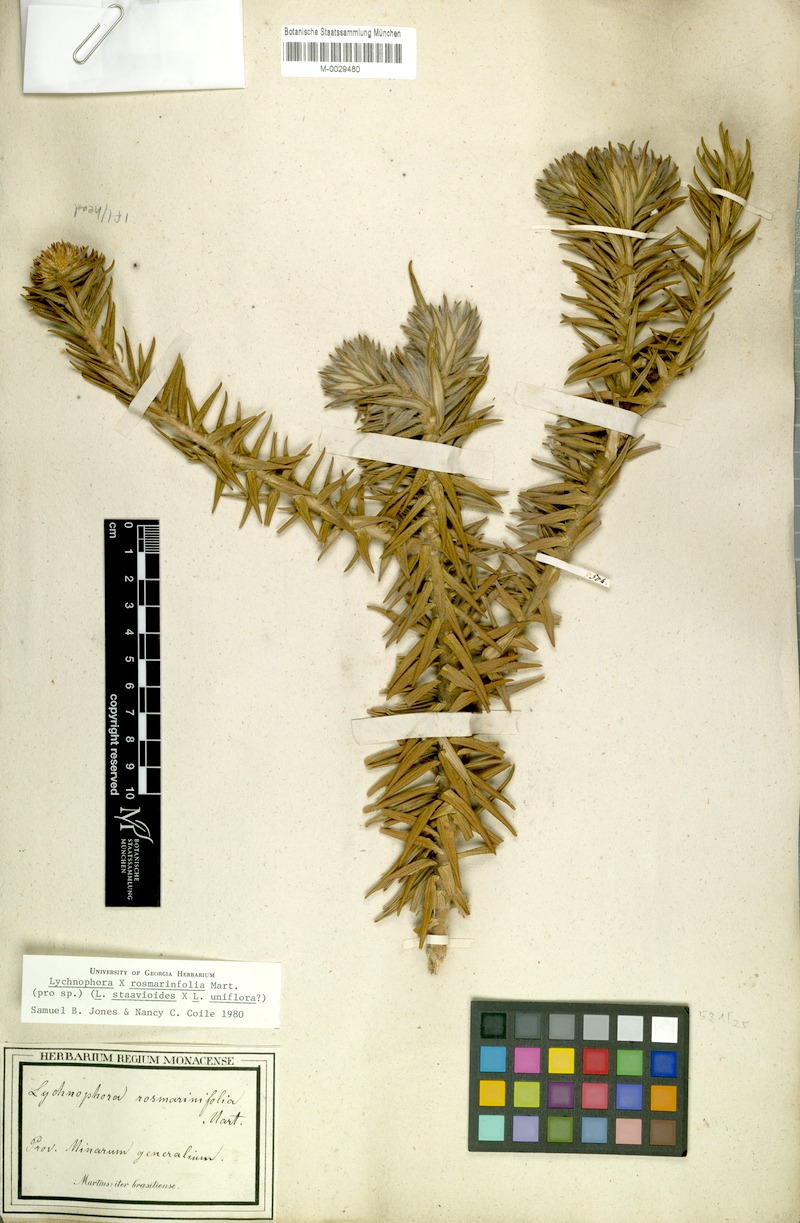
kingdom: Plantae
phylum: Tracheophyta
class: Magnoliopsida
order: Asterales
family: Asteraceae
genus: Lychnophora
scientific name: Lychnophora rosmarinifolia
